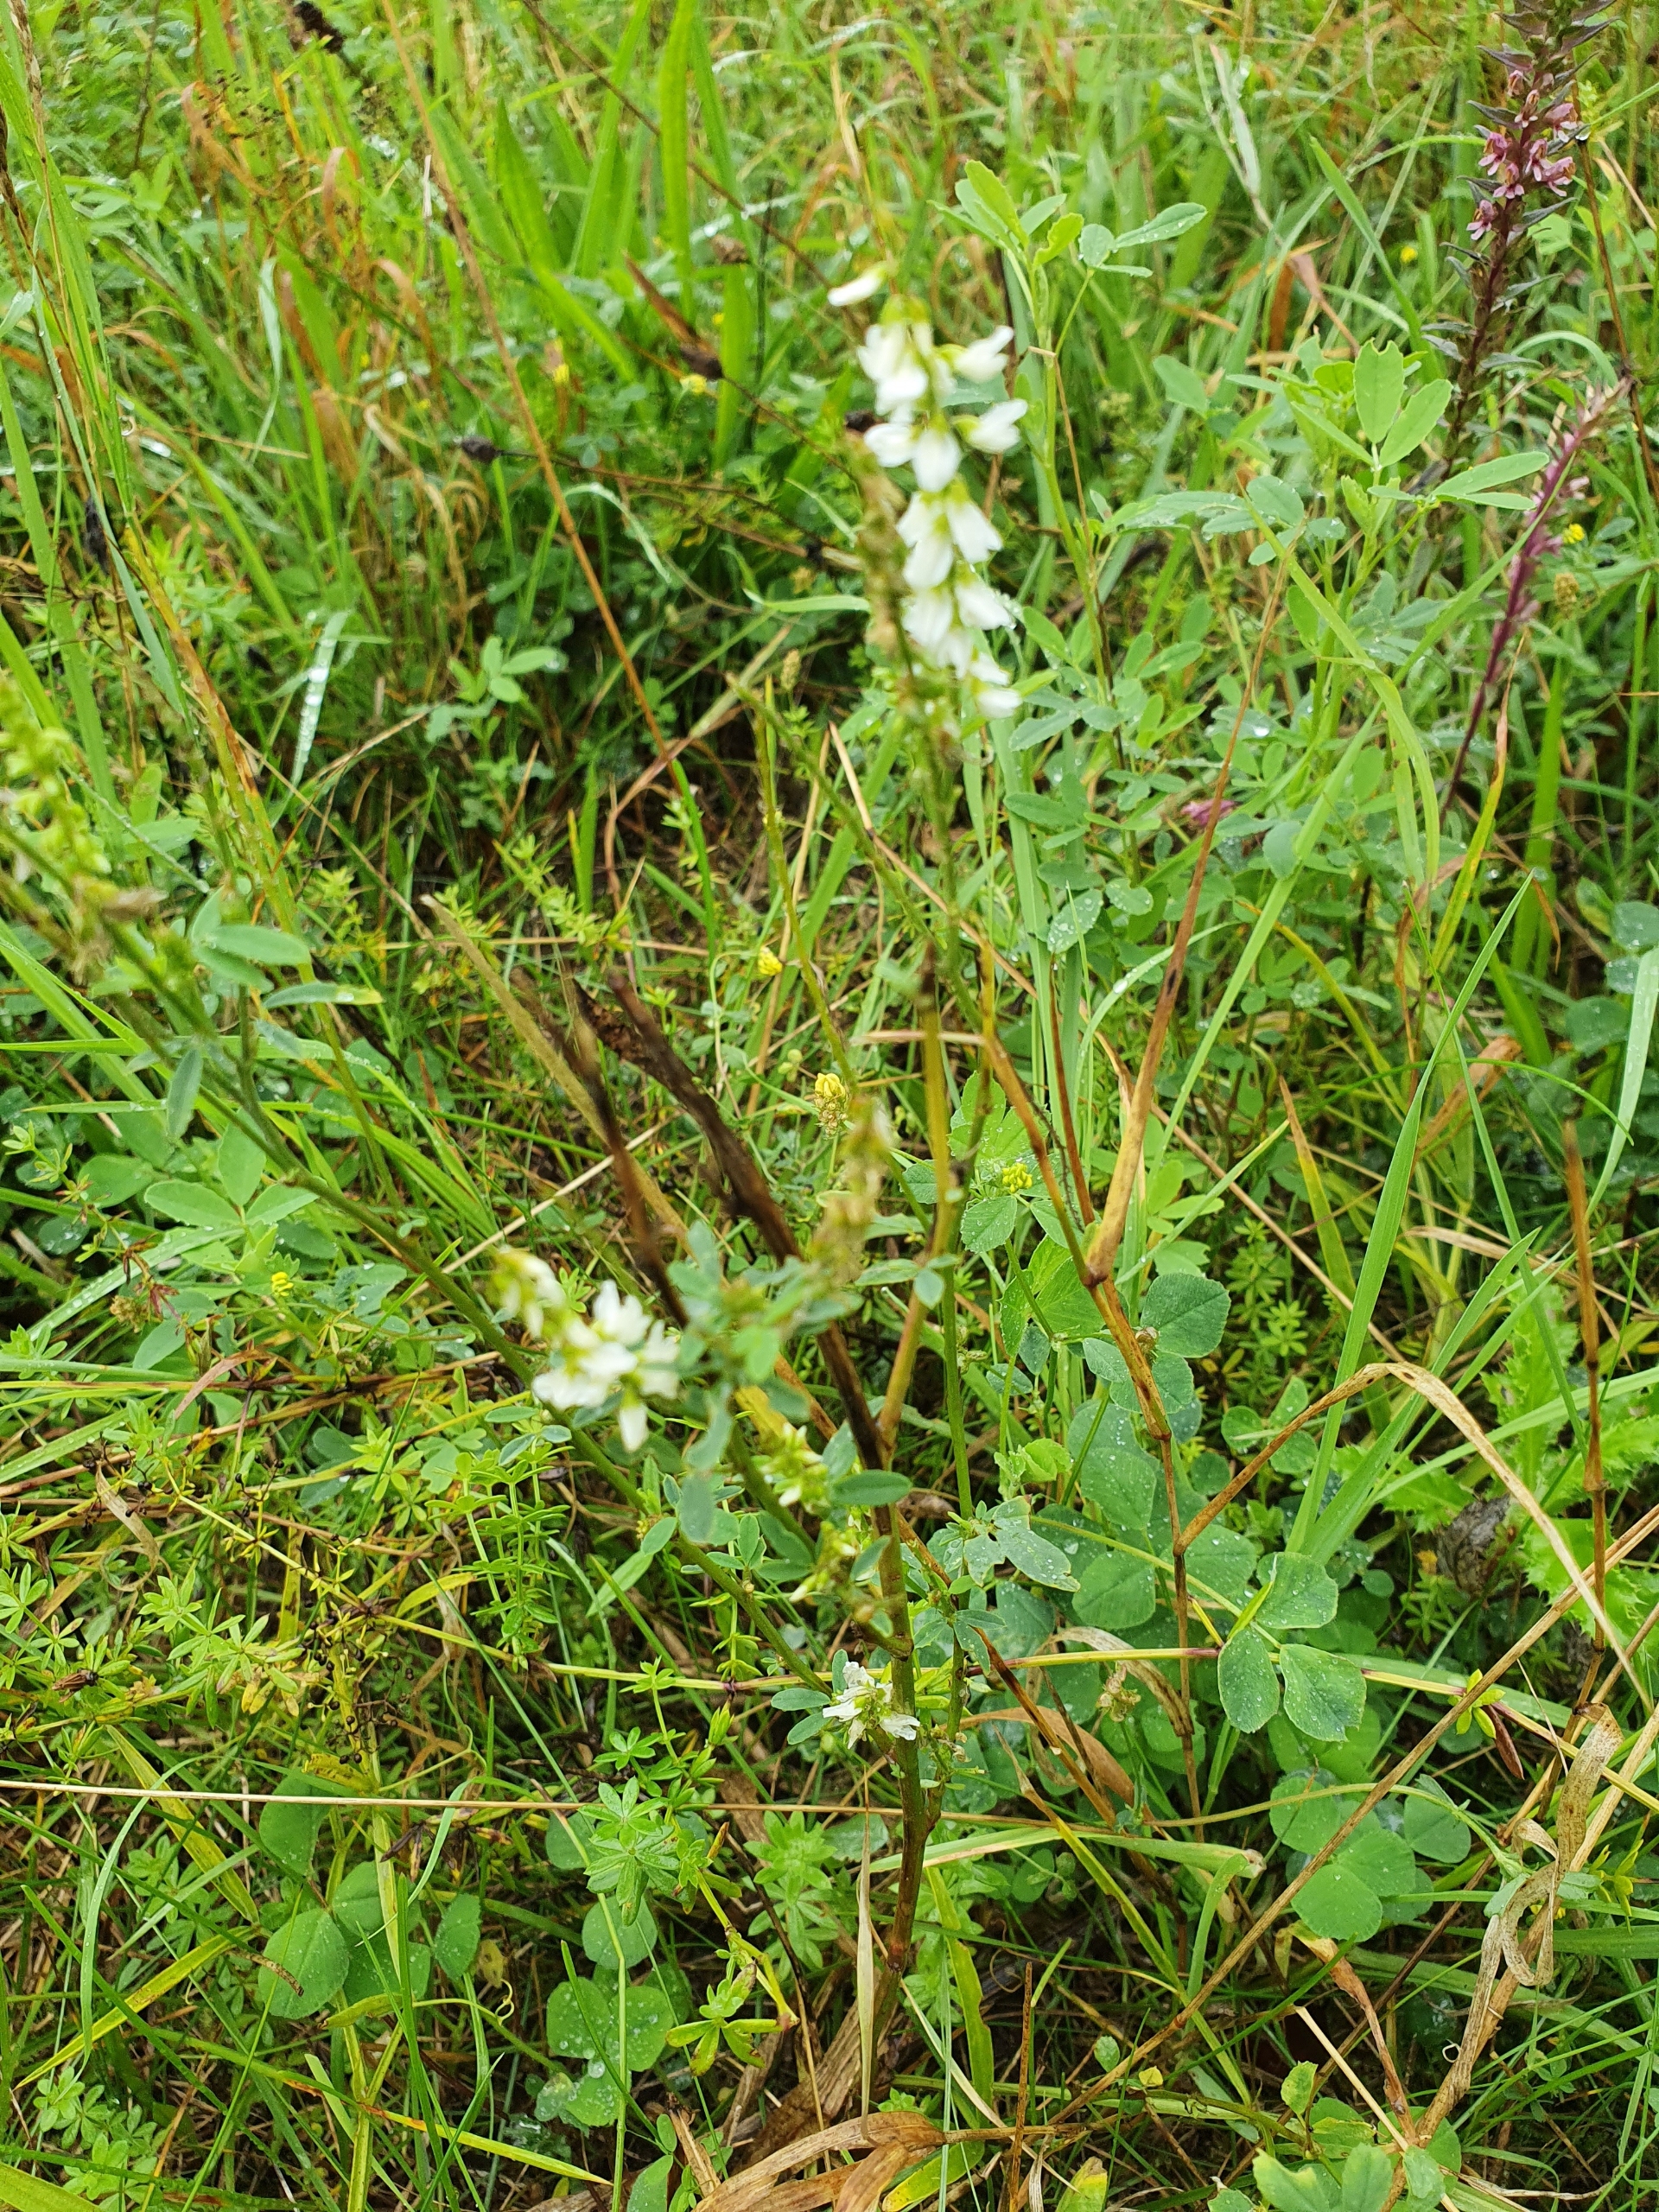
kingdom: Plantae
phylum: Tracheophyta
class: Magnoliopsida
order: Fabales
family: Fabaceae
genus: Melilotus
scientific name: Melilotus albus
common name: Hvid stenkløver
